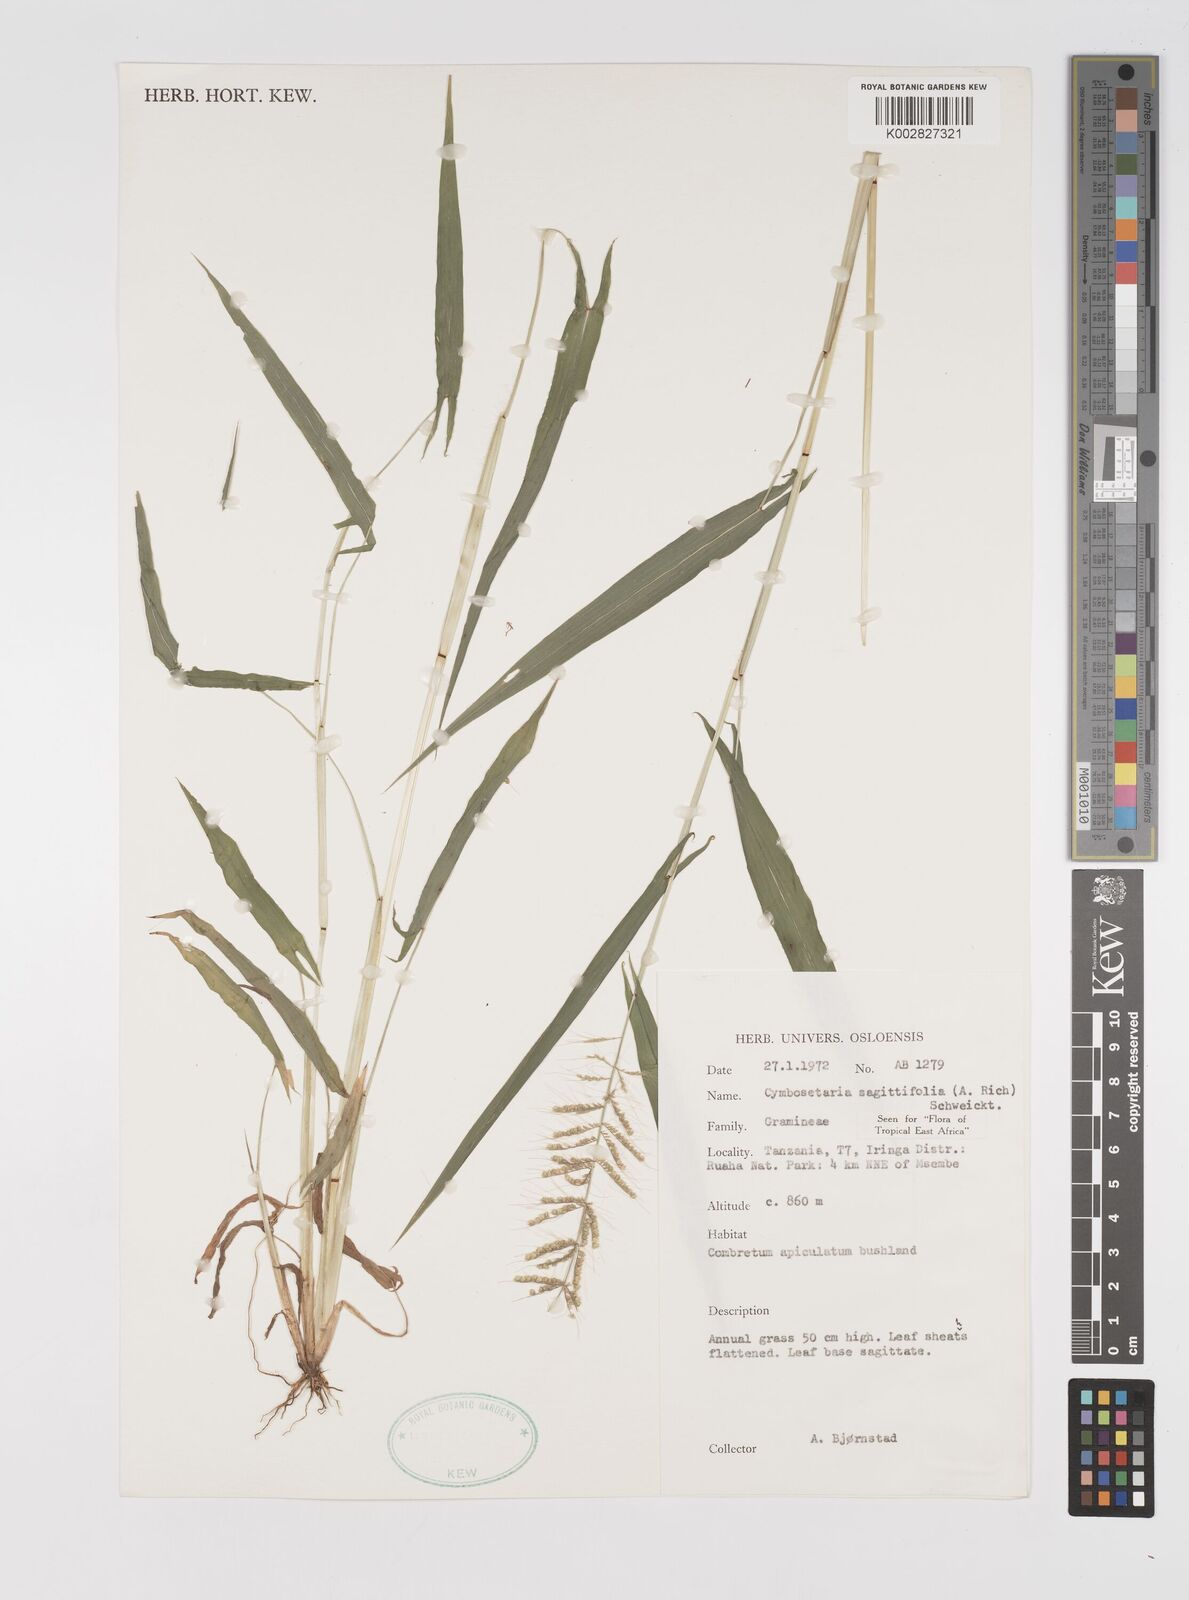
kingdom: Plantae
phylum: Tracheophyta
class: Liliopsida
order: Poales
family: Poaceae
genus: Setaria
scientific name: Setaria sagittifolia
